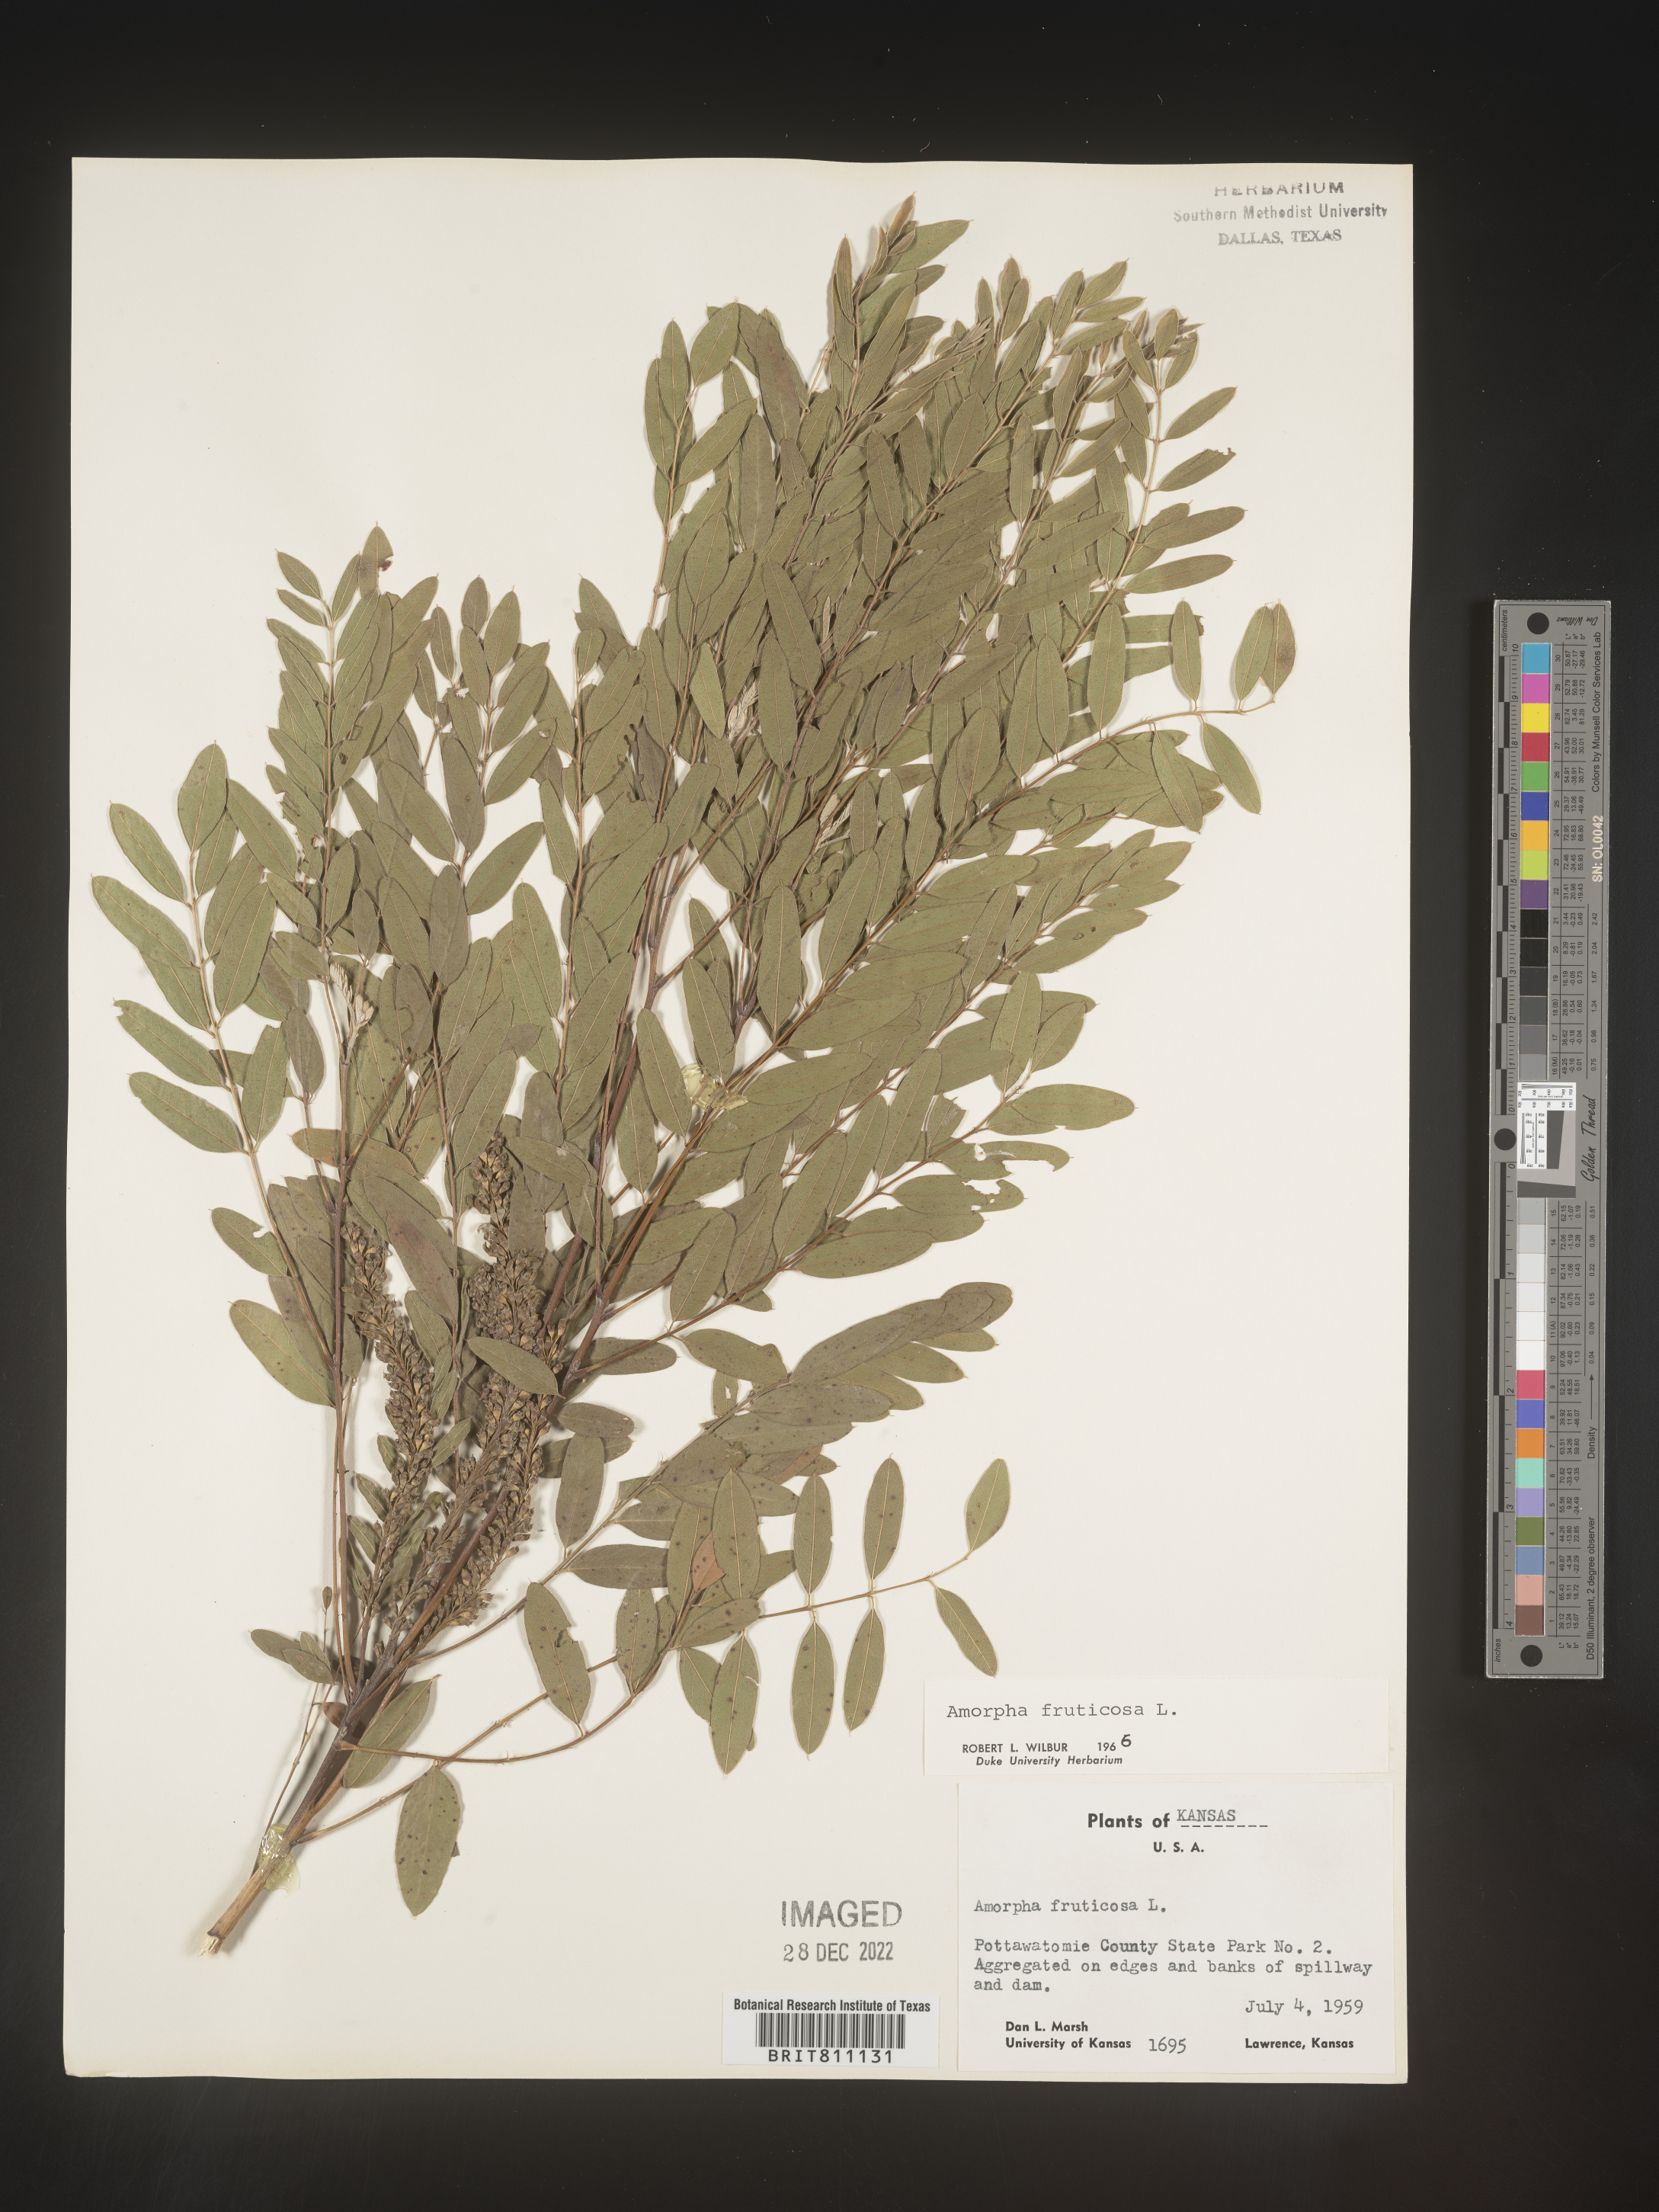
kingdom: Plantae
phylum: Tracheophyta
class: Magnoliopsida
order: Fabales
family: Fabaceae
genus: Amorpha
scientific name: Amorpha fruticosa
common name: False indigo
